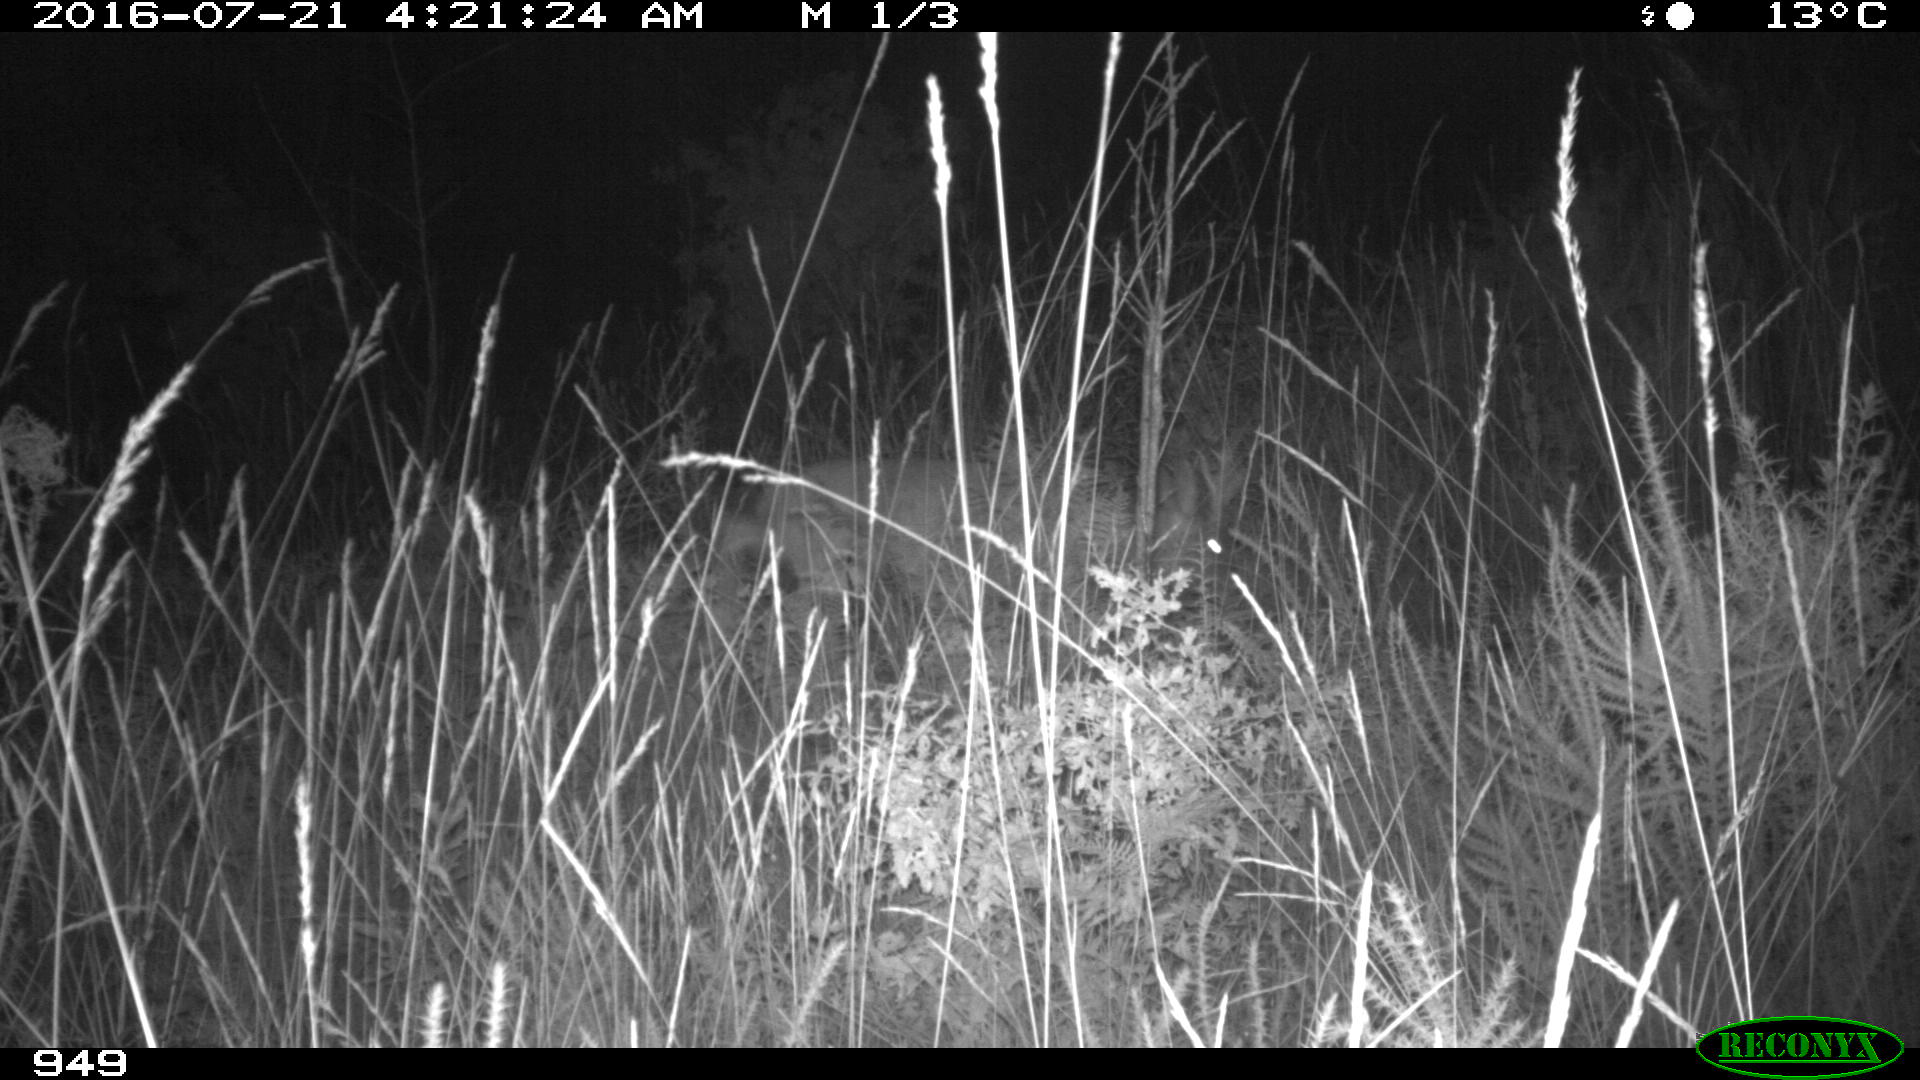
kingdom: Animalia
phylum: Chordata
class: Mammalia
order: Artiodactyla
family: Cervidae
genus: Capreolus
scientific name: Capreolus capreolus
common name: Western roe deer
